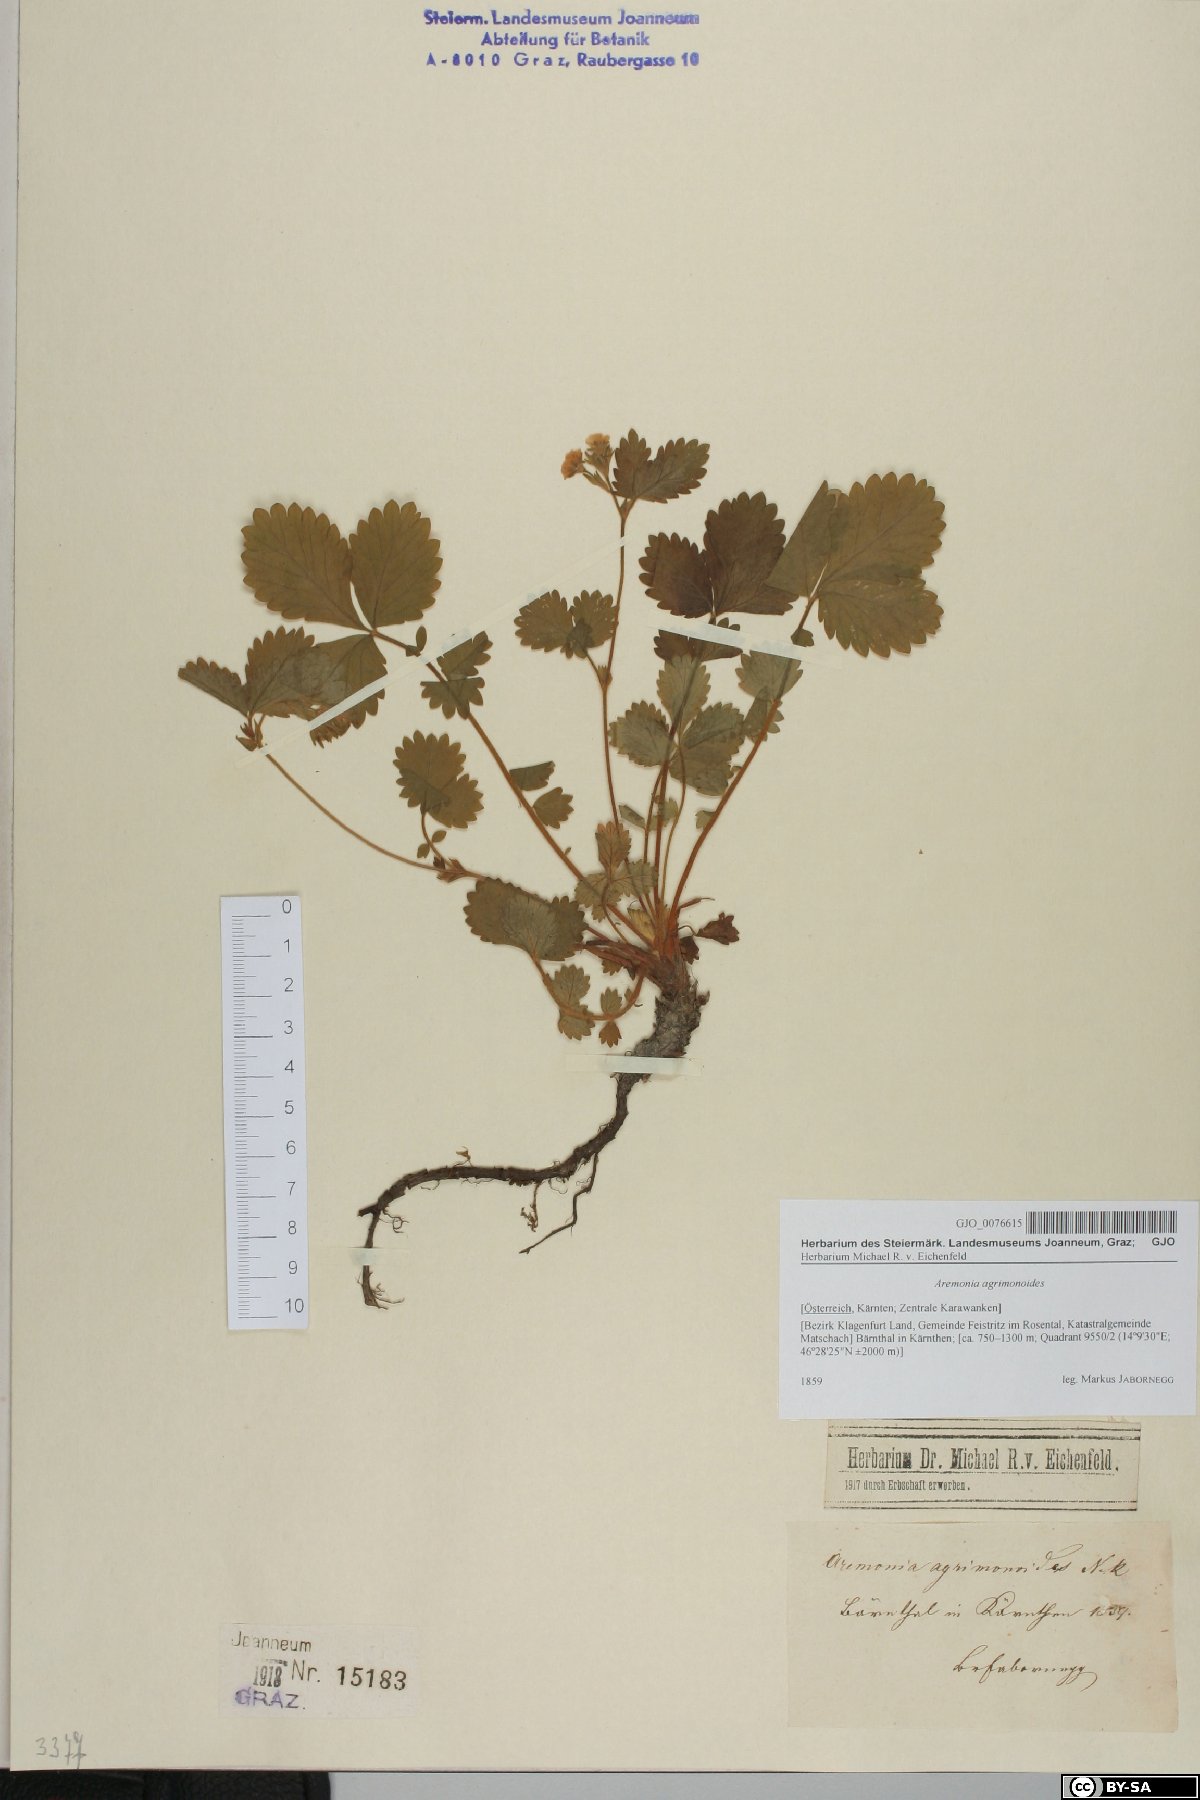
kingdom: Plantae
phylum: Tracheophyta
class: Magnoliopsida
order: Rosales
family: Rosaceae
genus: Aremonia
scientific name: Aremonia agrimonoides
